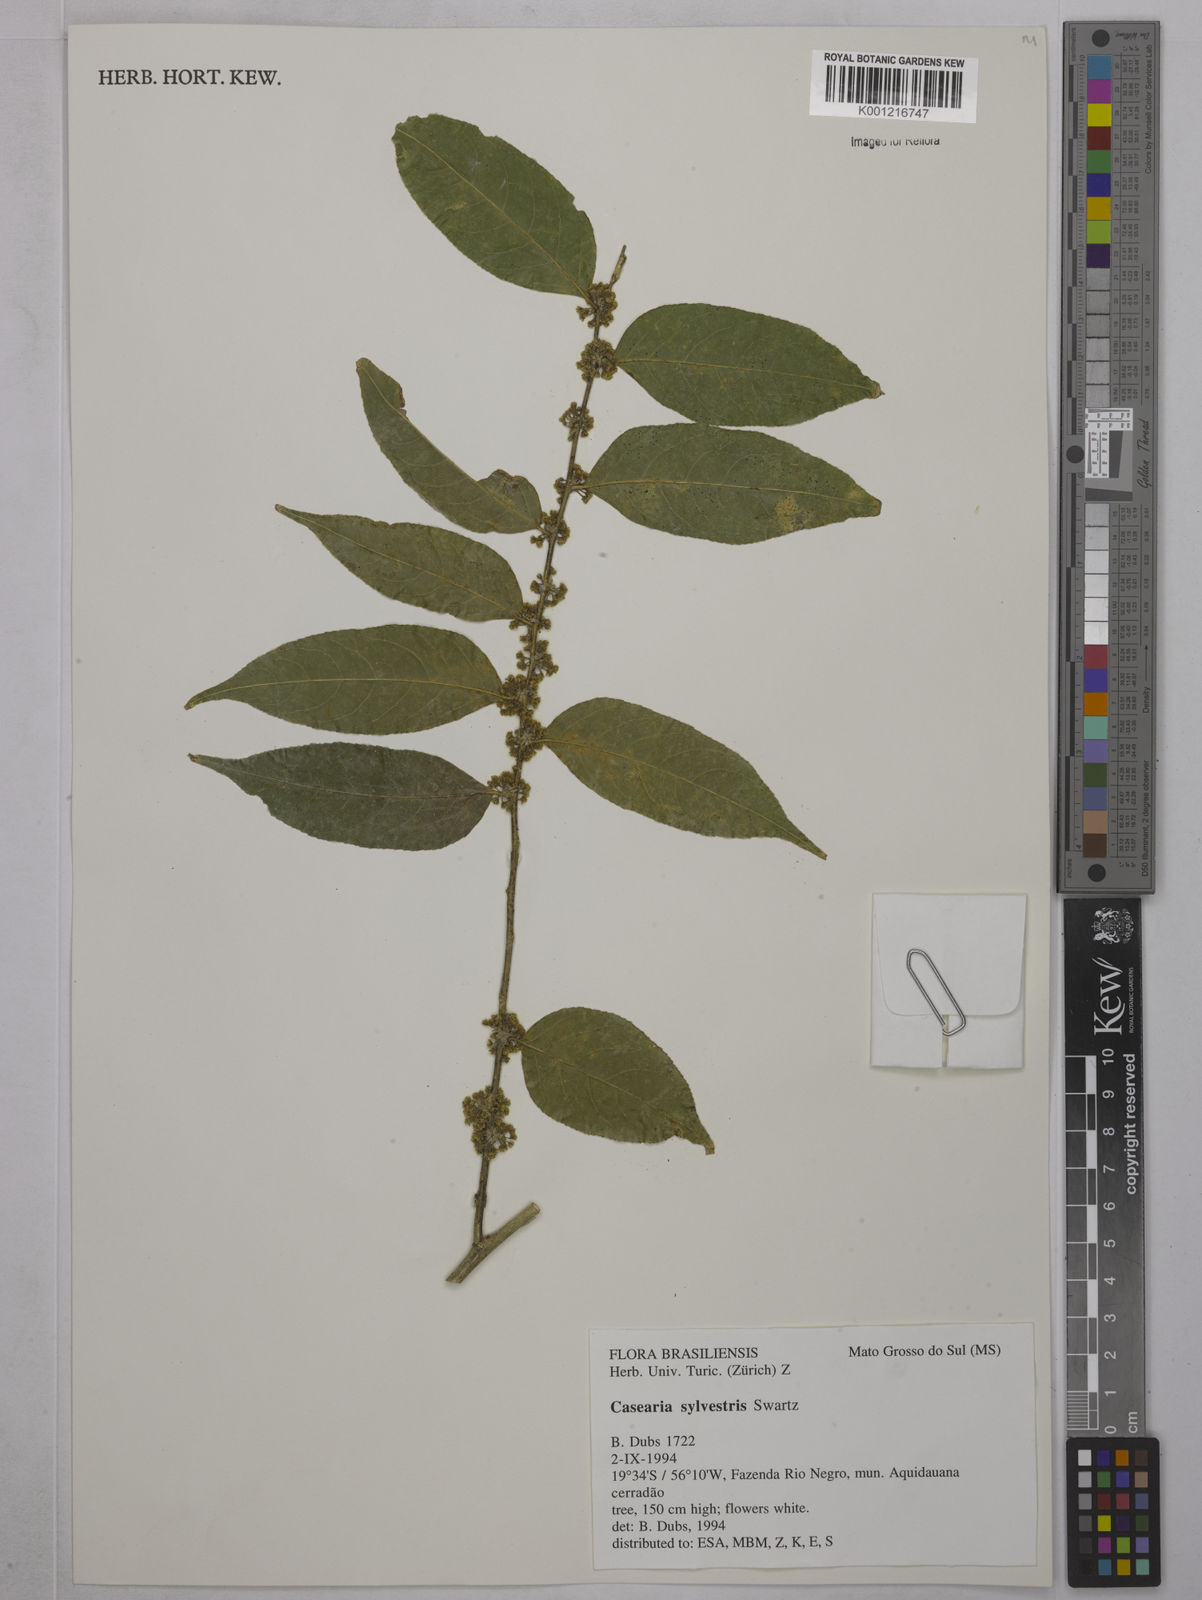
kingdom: Plantae
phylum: Tracheophyta
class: Magnoliopsida
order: Malpighiales
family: Salicaceae
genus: Casearia
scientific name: Casearia sylvestris
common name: Wild sage
